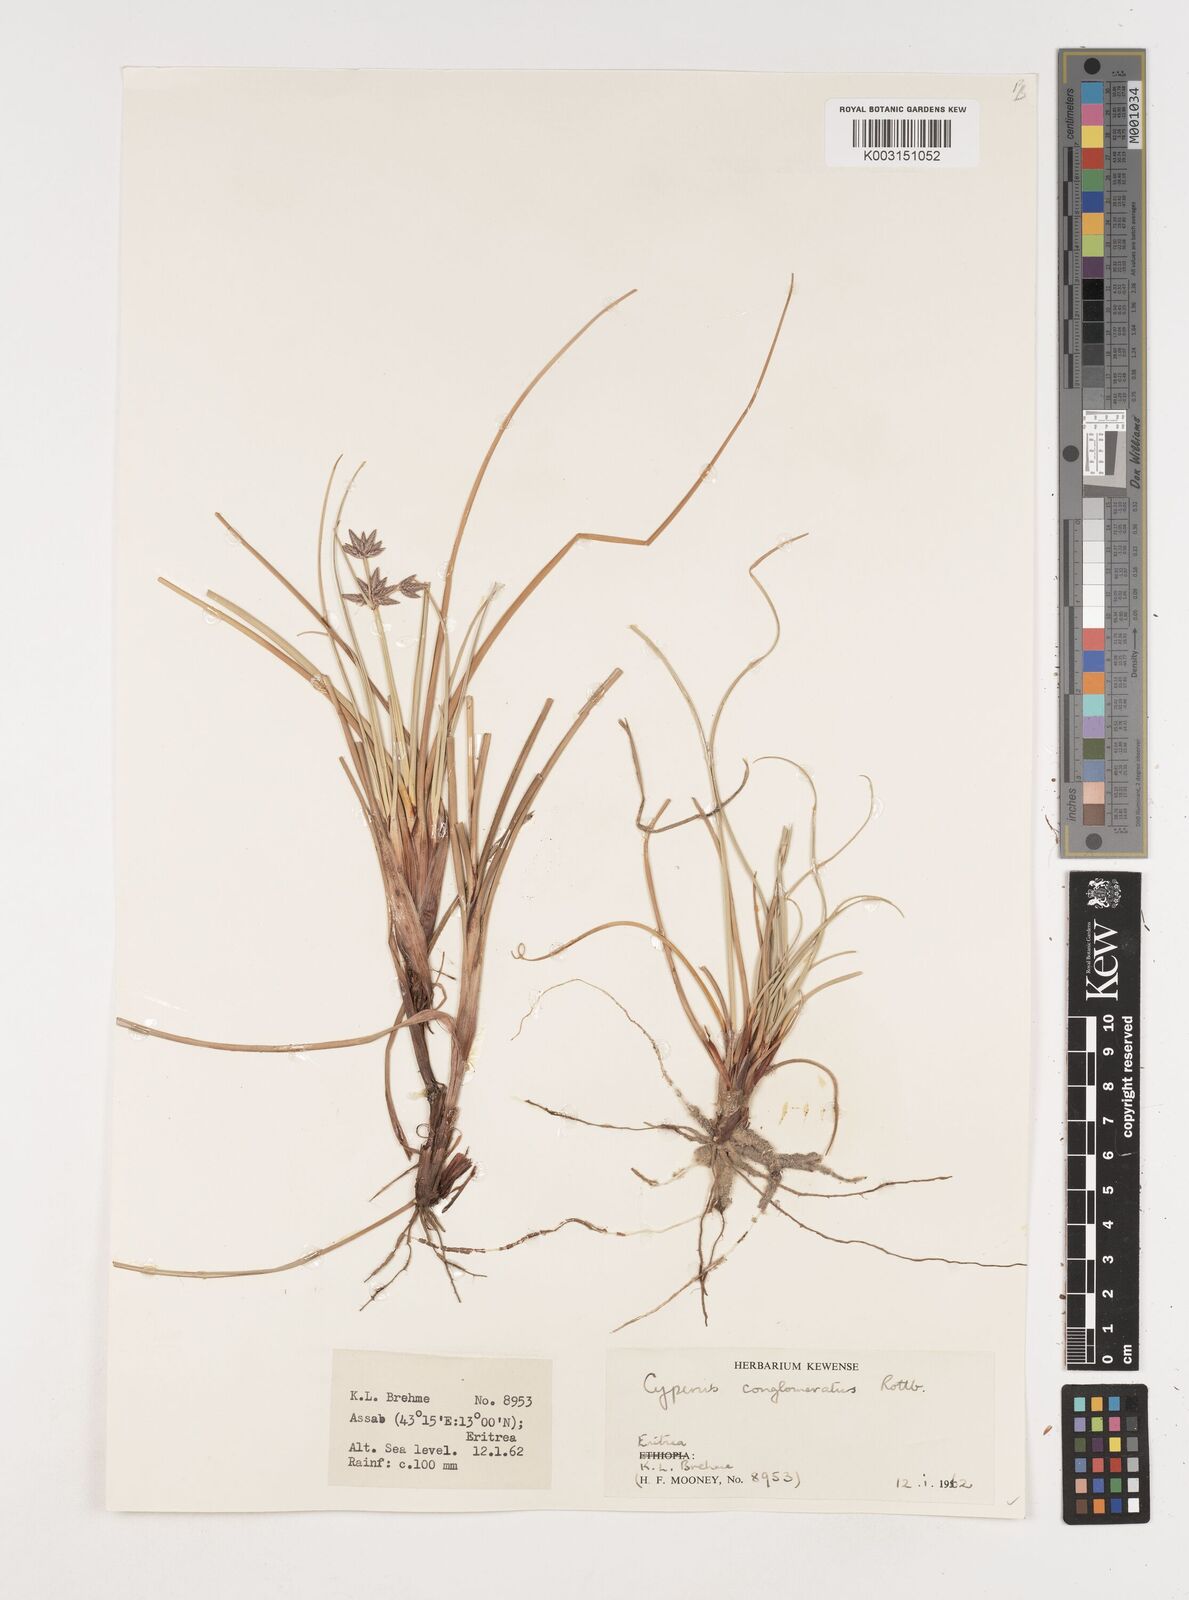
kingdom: Plantae
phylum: Tracheophyta
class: Liliopsida
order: Poales
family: Cyperaceae
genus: Cyperus
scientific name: Cyperus conglomeratus
